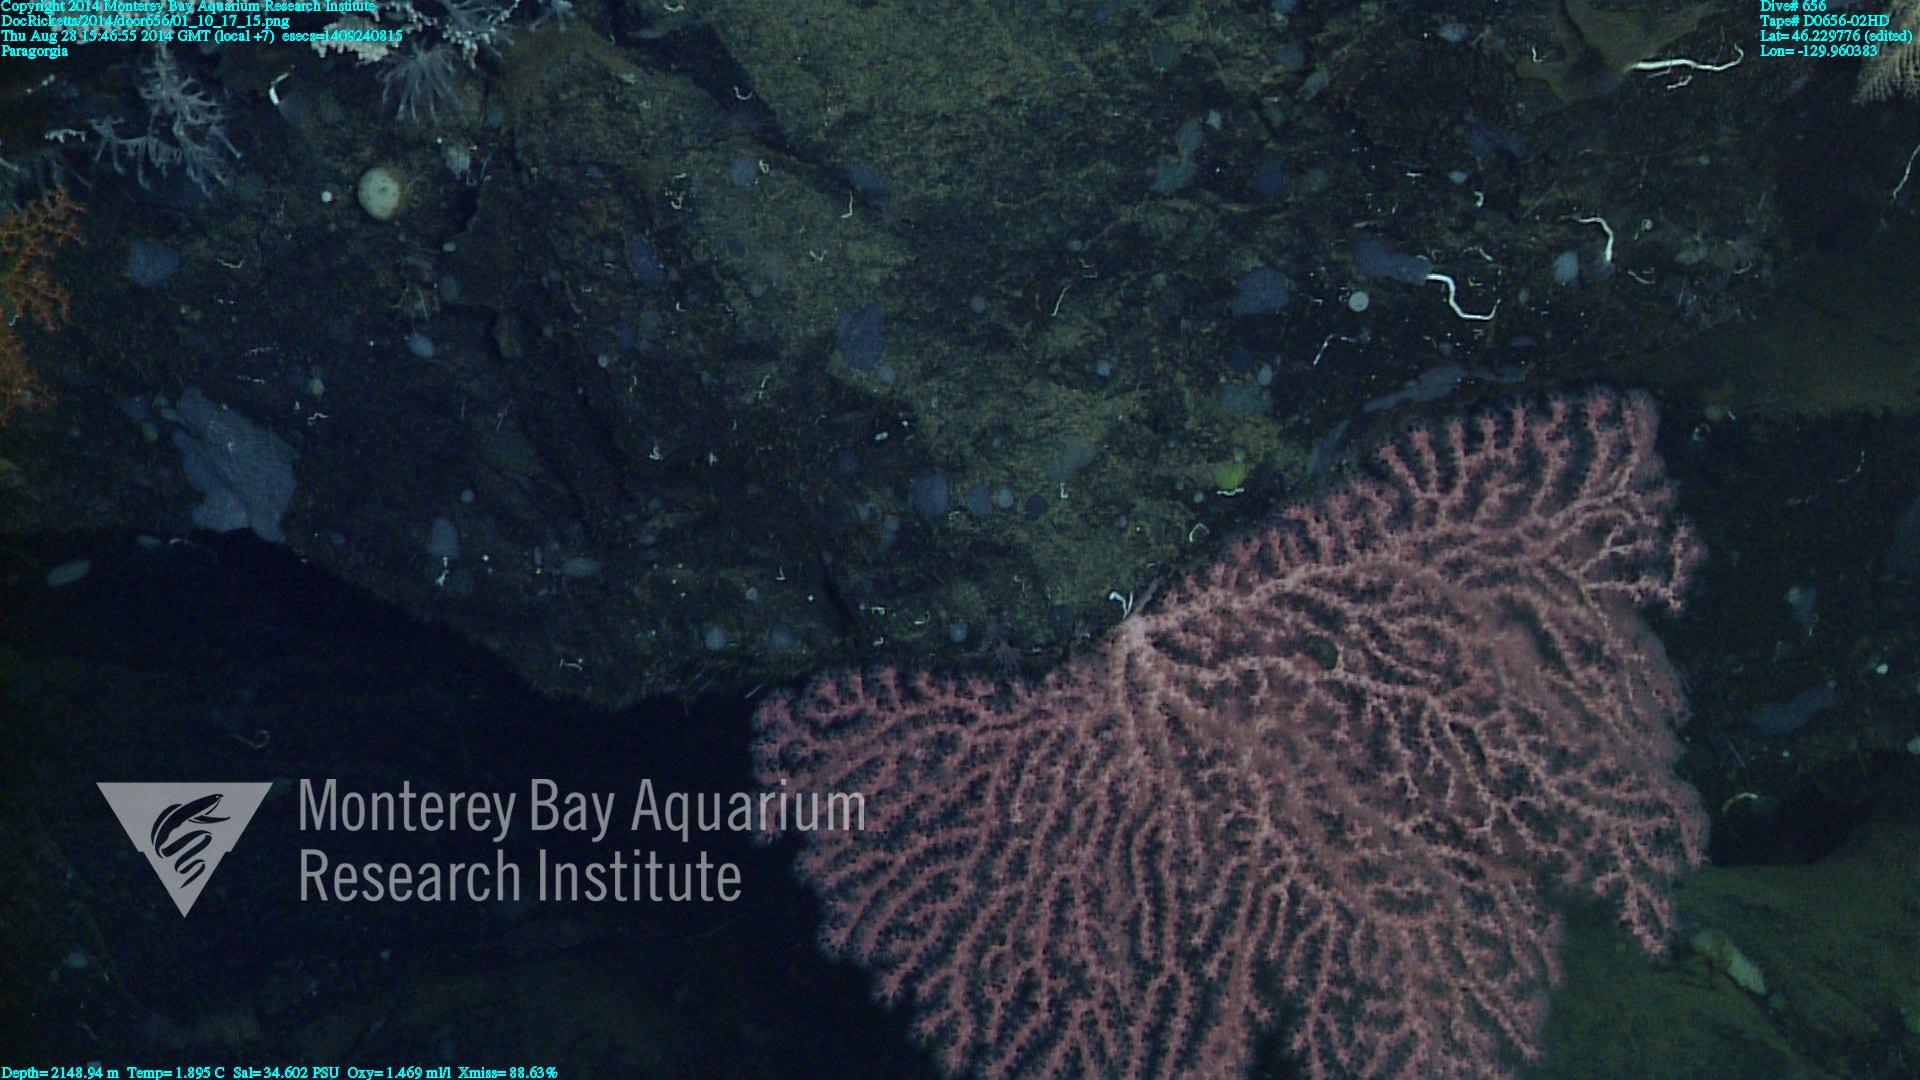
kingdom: Animalia
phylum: Cnidaria
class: Anthozoa
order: Scleralcyonacea
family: Coralliidae
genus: Paragorgia
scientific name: Paragorgia
